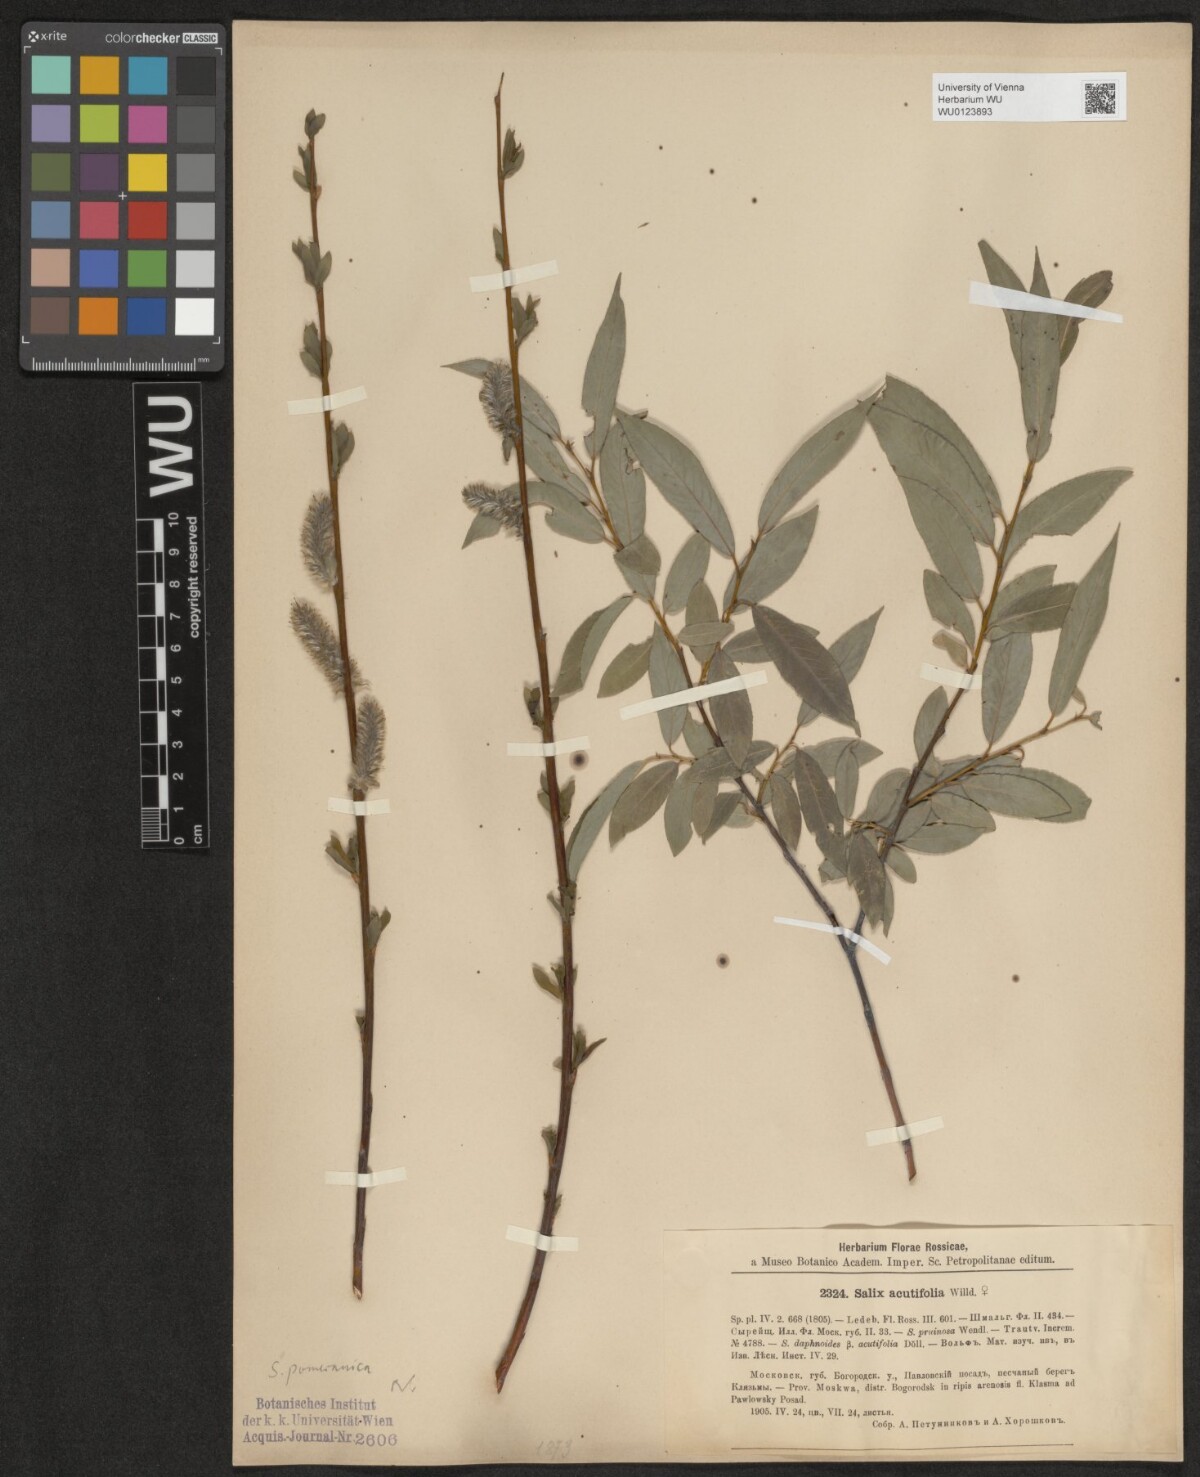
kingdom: Plantae
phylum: Tracheophyta
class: Magnoliopsida
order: Malpighiales
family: Salicaceae
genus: Salix
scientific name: Salix acutifolia
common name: Siberian violet-willow
